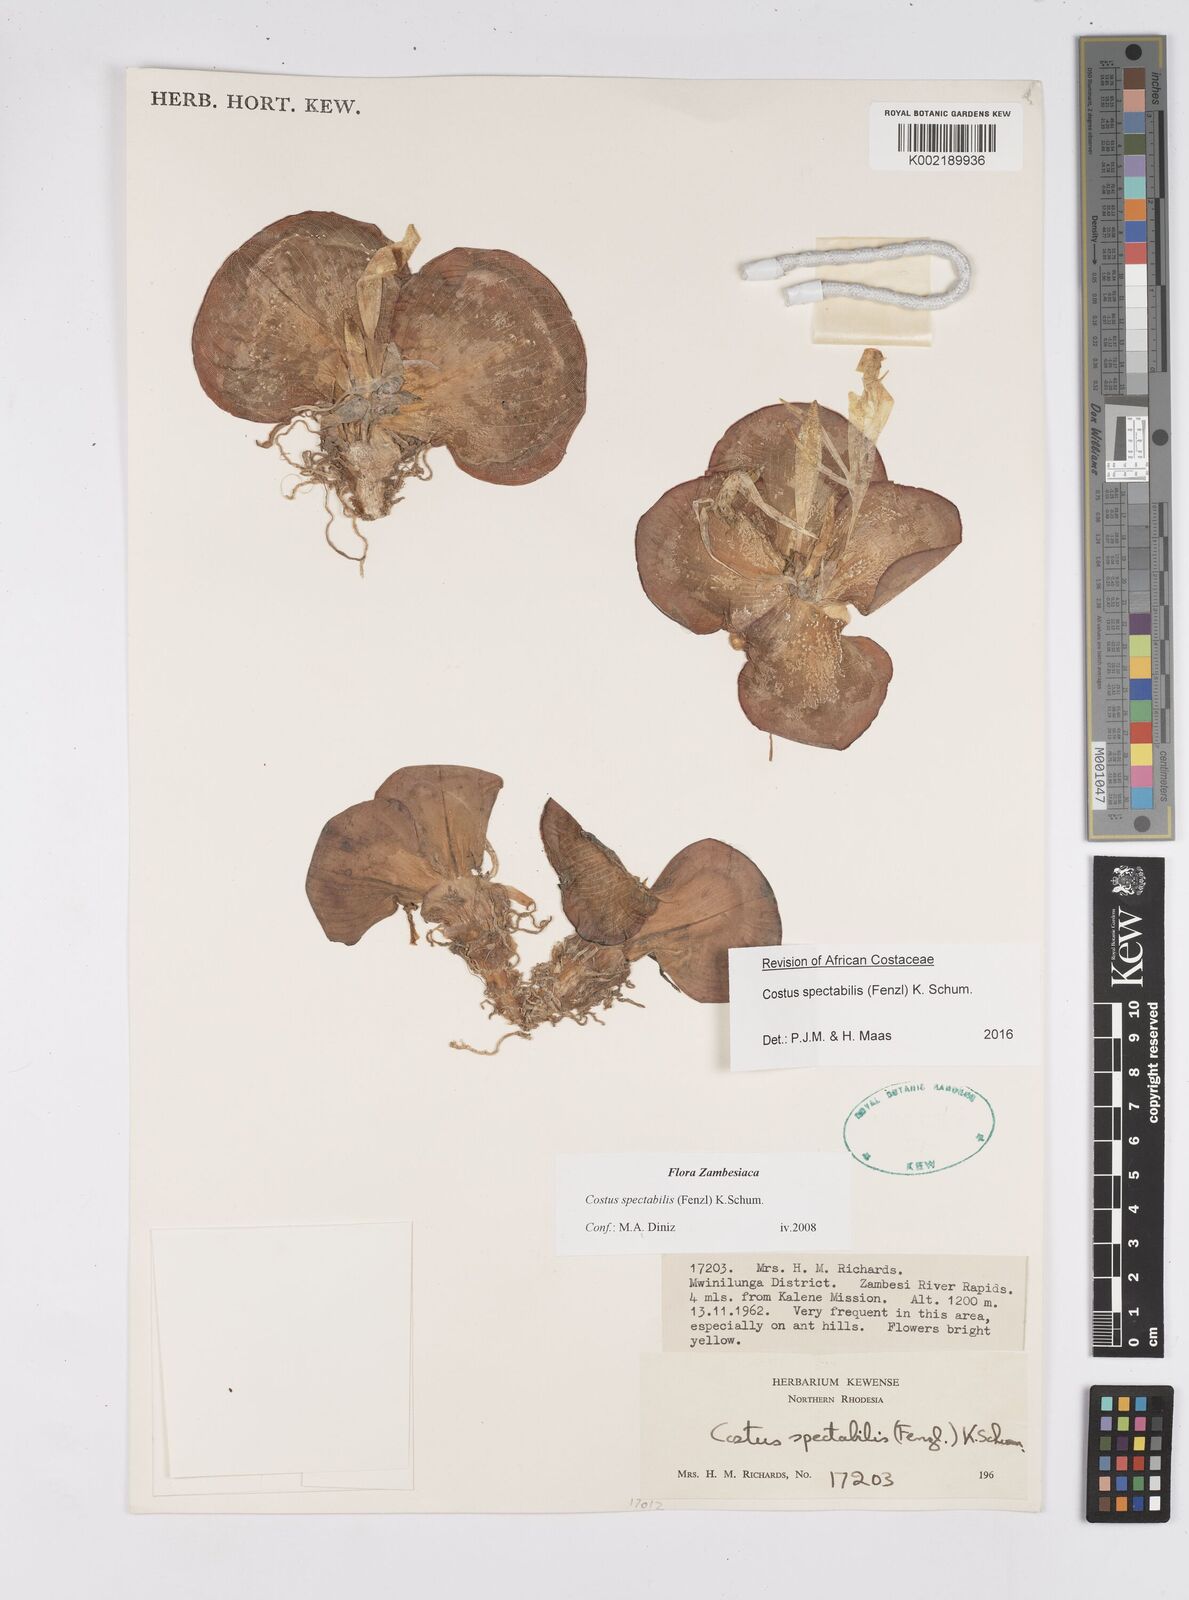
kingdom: Plantae
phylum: Tracheophyta
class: Liliopsida
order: Zingiberales
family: Costaceae
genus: Costus
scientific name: Costus spectabilis
